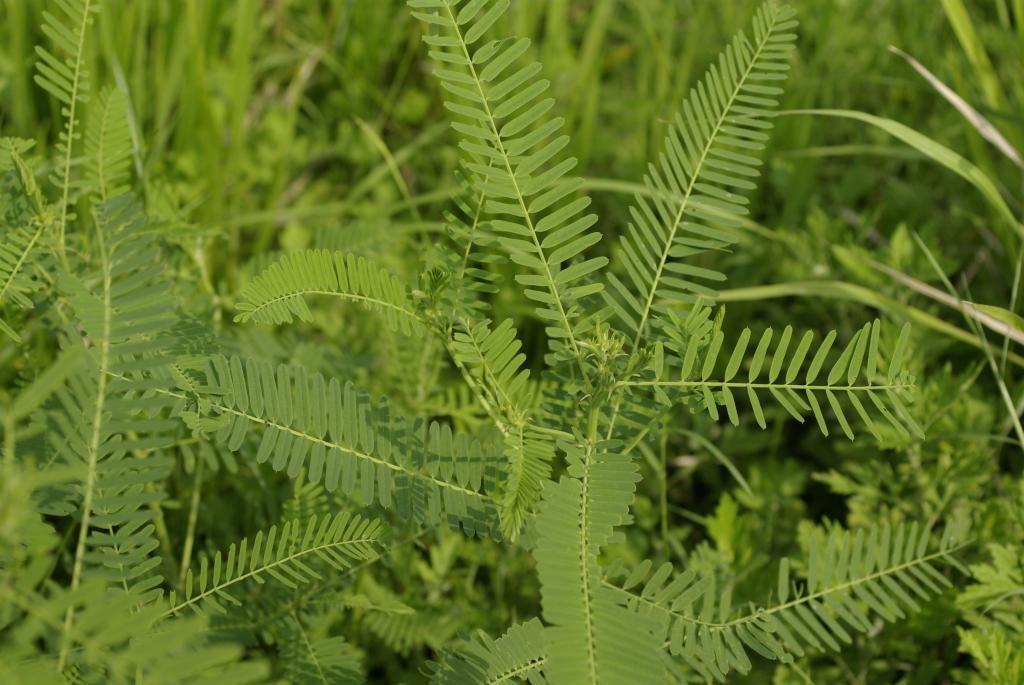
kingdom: Plantae
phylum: Tracheophyta
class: Magnoliopsida
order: Fabales
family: Fabaceae
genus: Sesbania
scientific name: Sesbania cannabina
